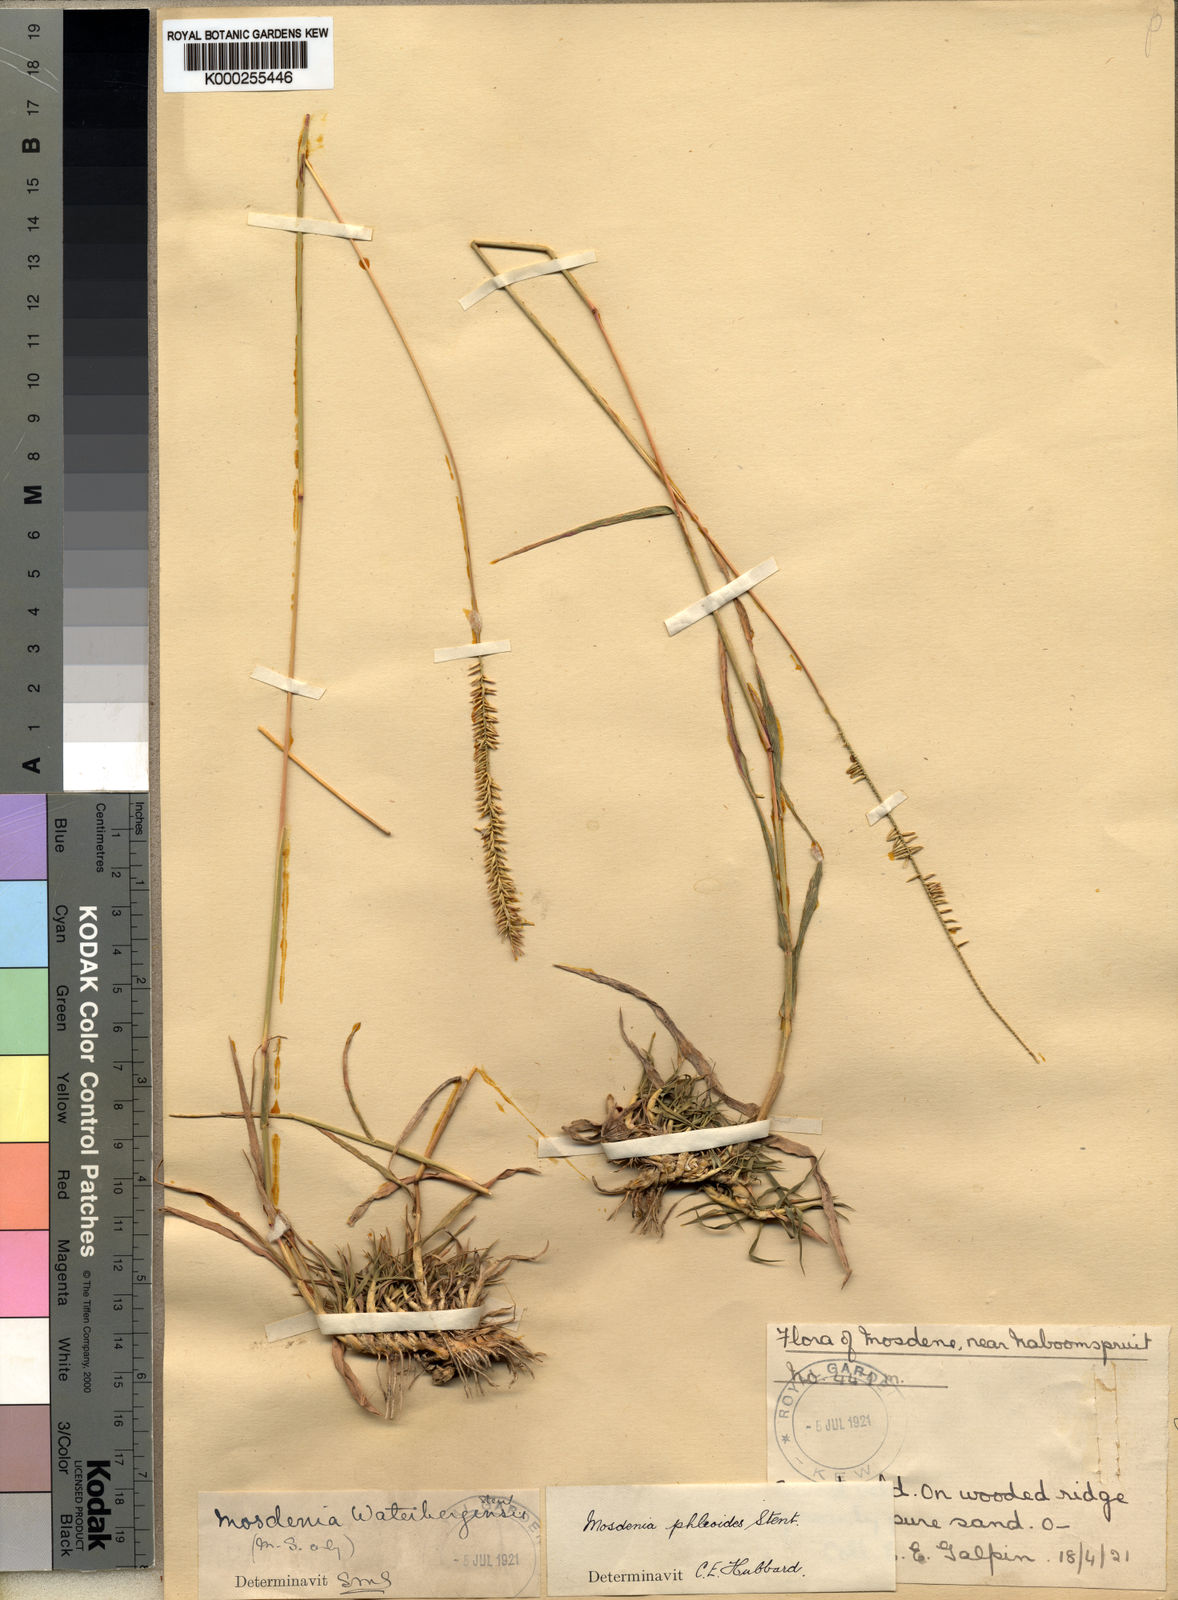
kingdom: Plantae
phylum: Tracheophyta
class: Liliopsida
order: Poales
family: Poaceae
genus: Mosdenia
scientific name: Mosdenia leptostachys
